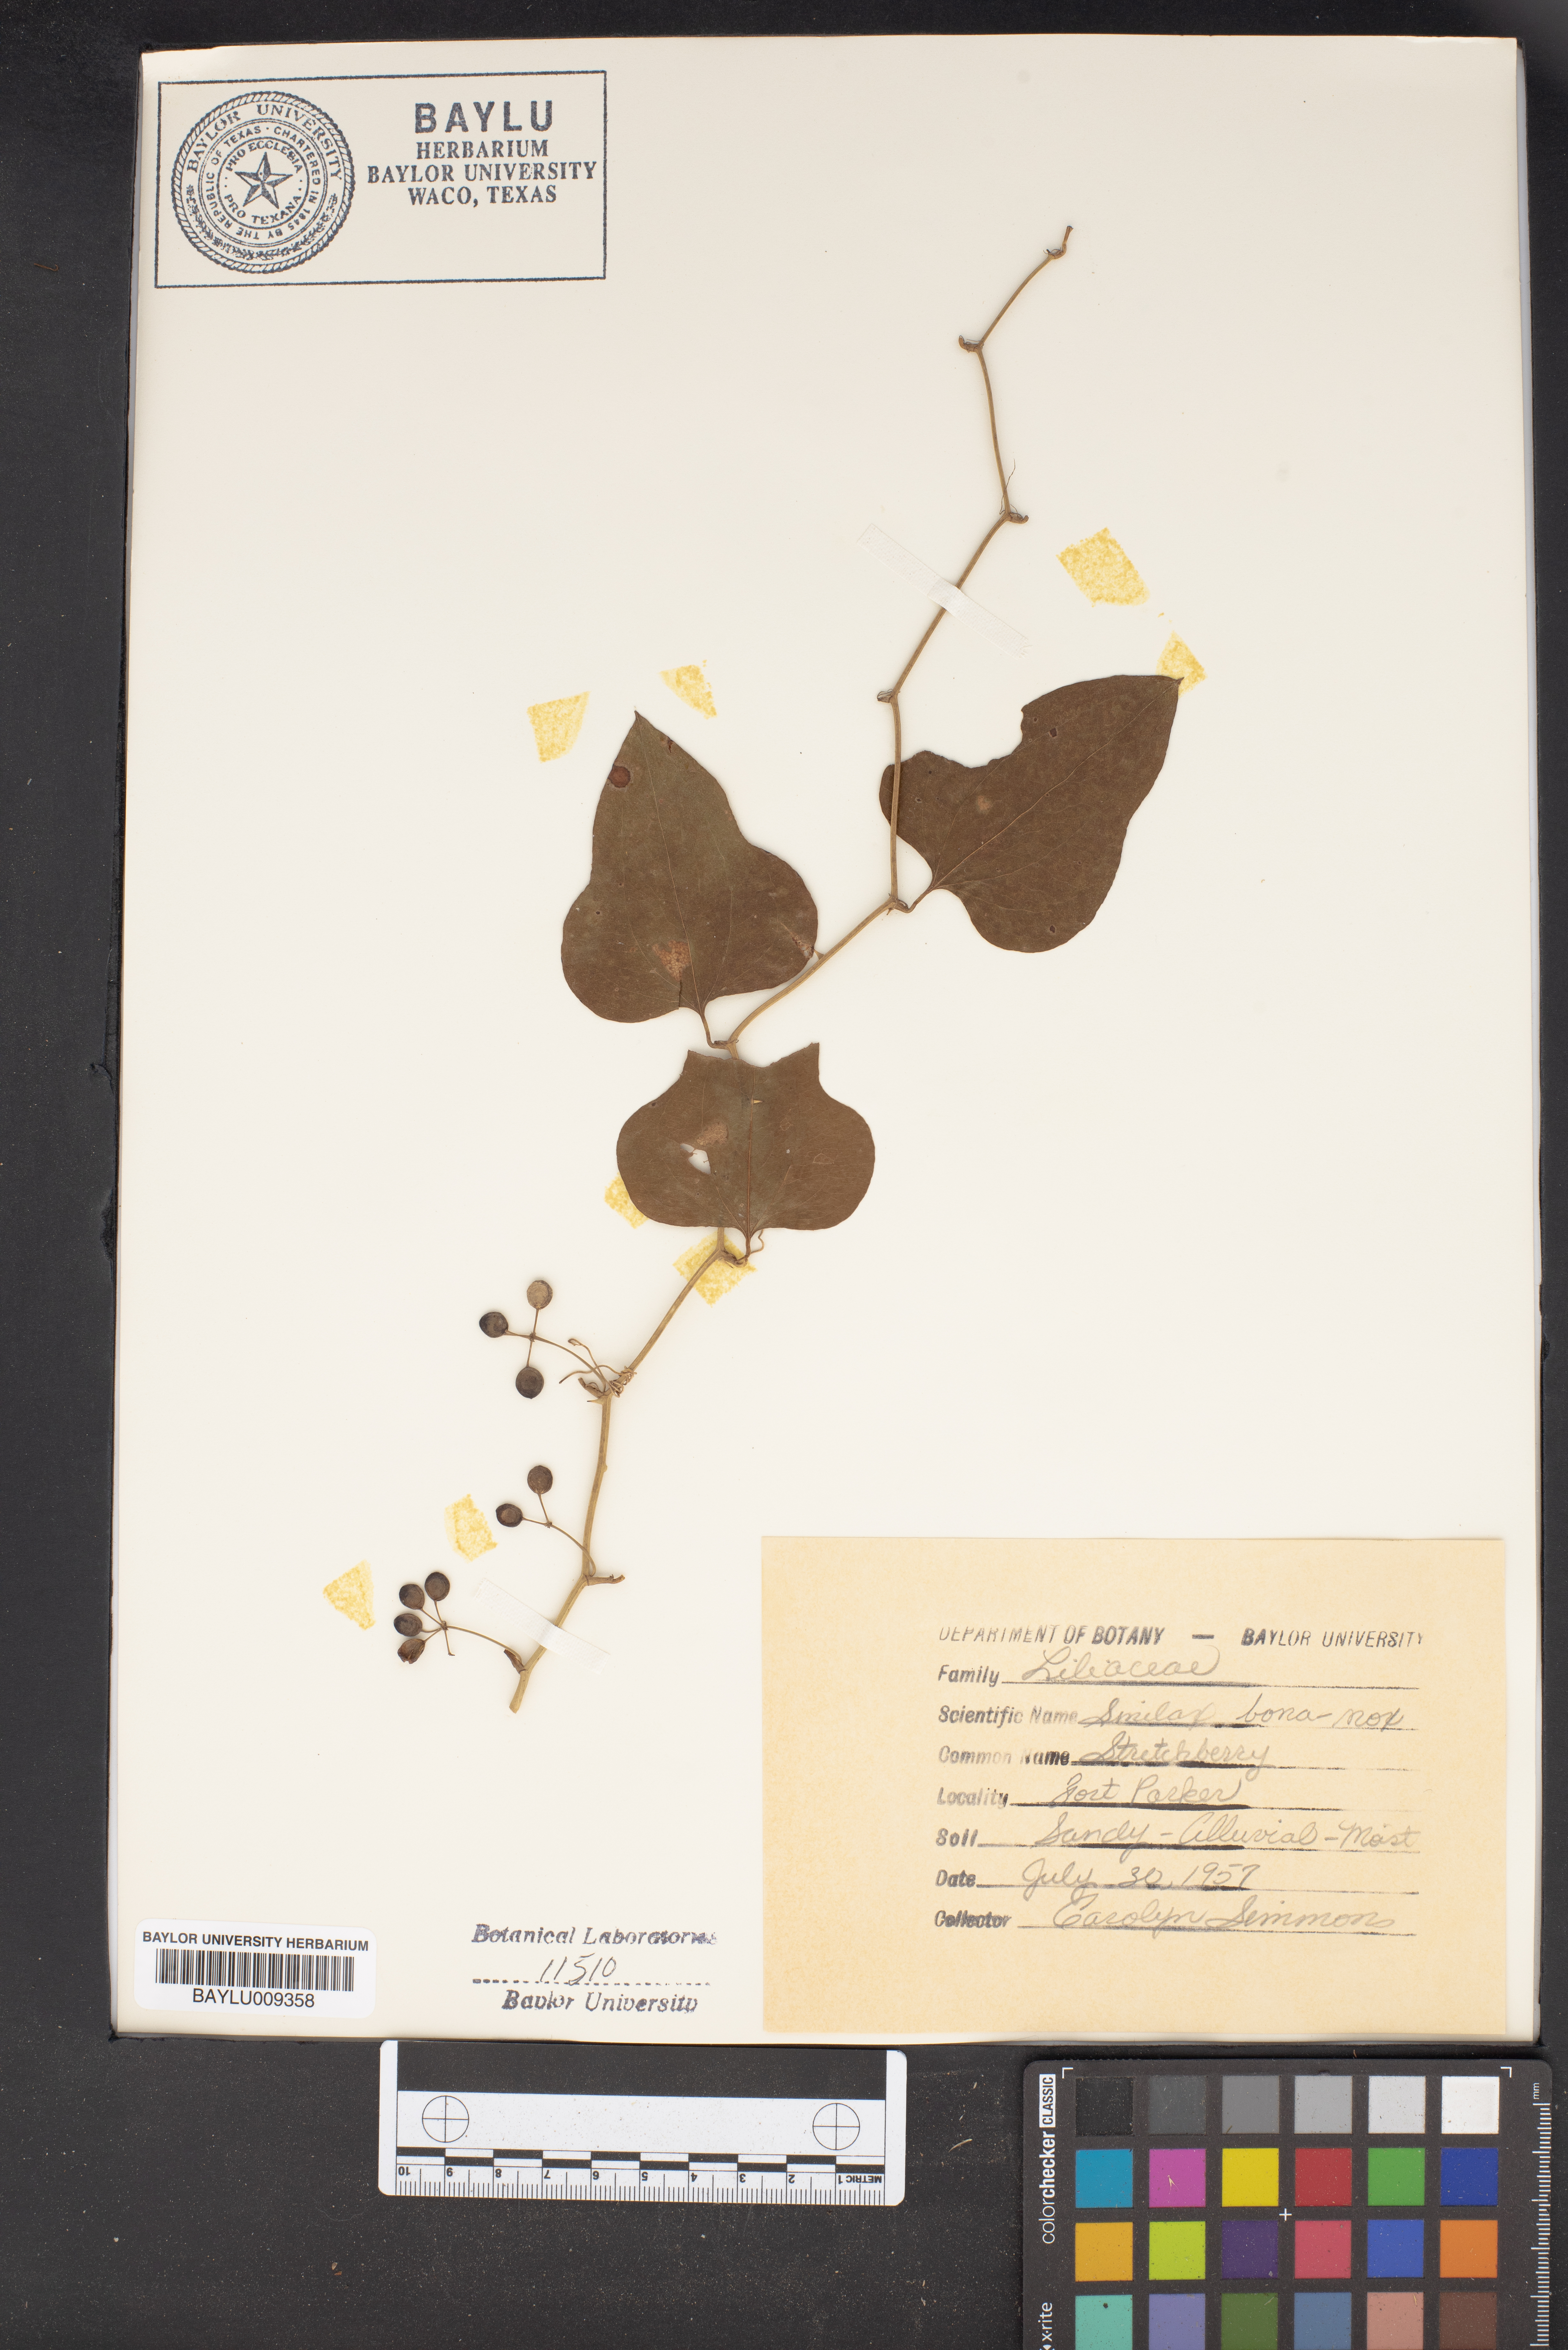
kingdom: Plantae
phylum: Tracheophyta
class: Liliopsida
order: Liliales
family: Smilacaceae
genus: Smilax
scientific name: Smilax bona-nox
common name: Catbrier
